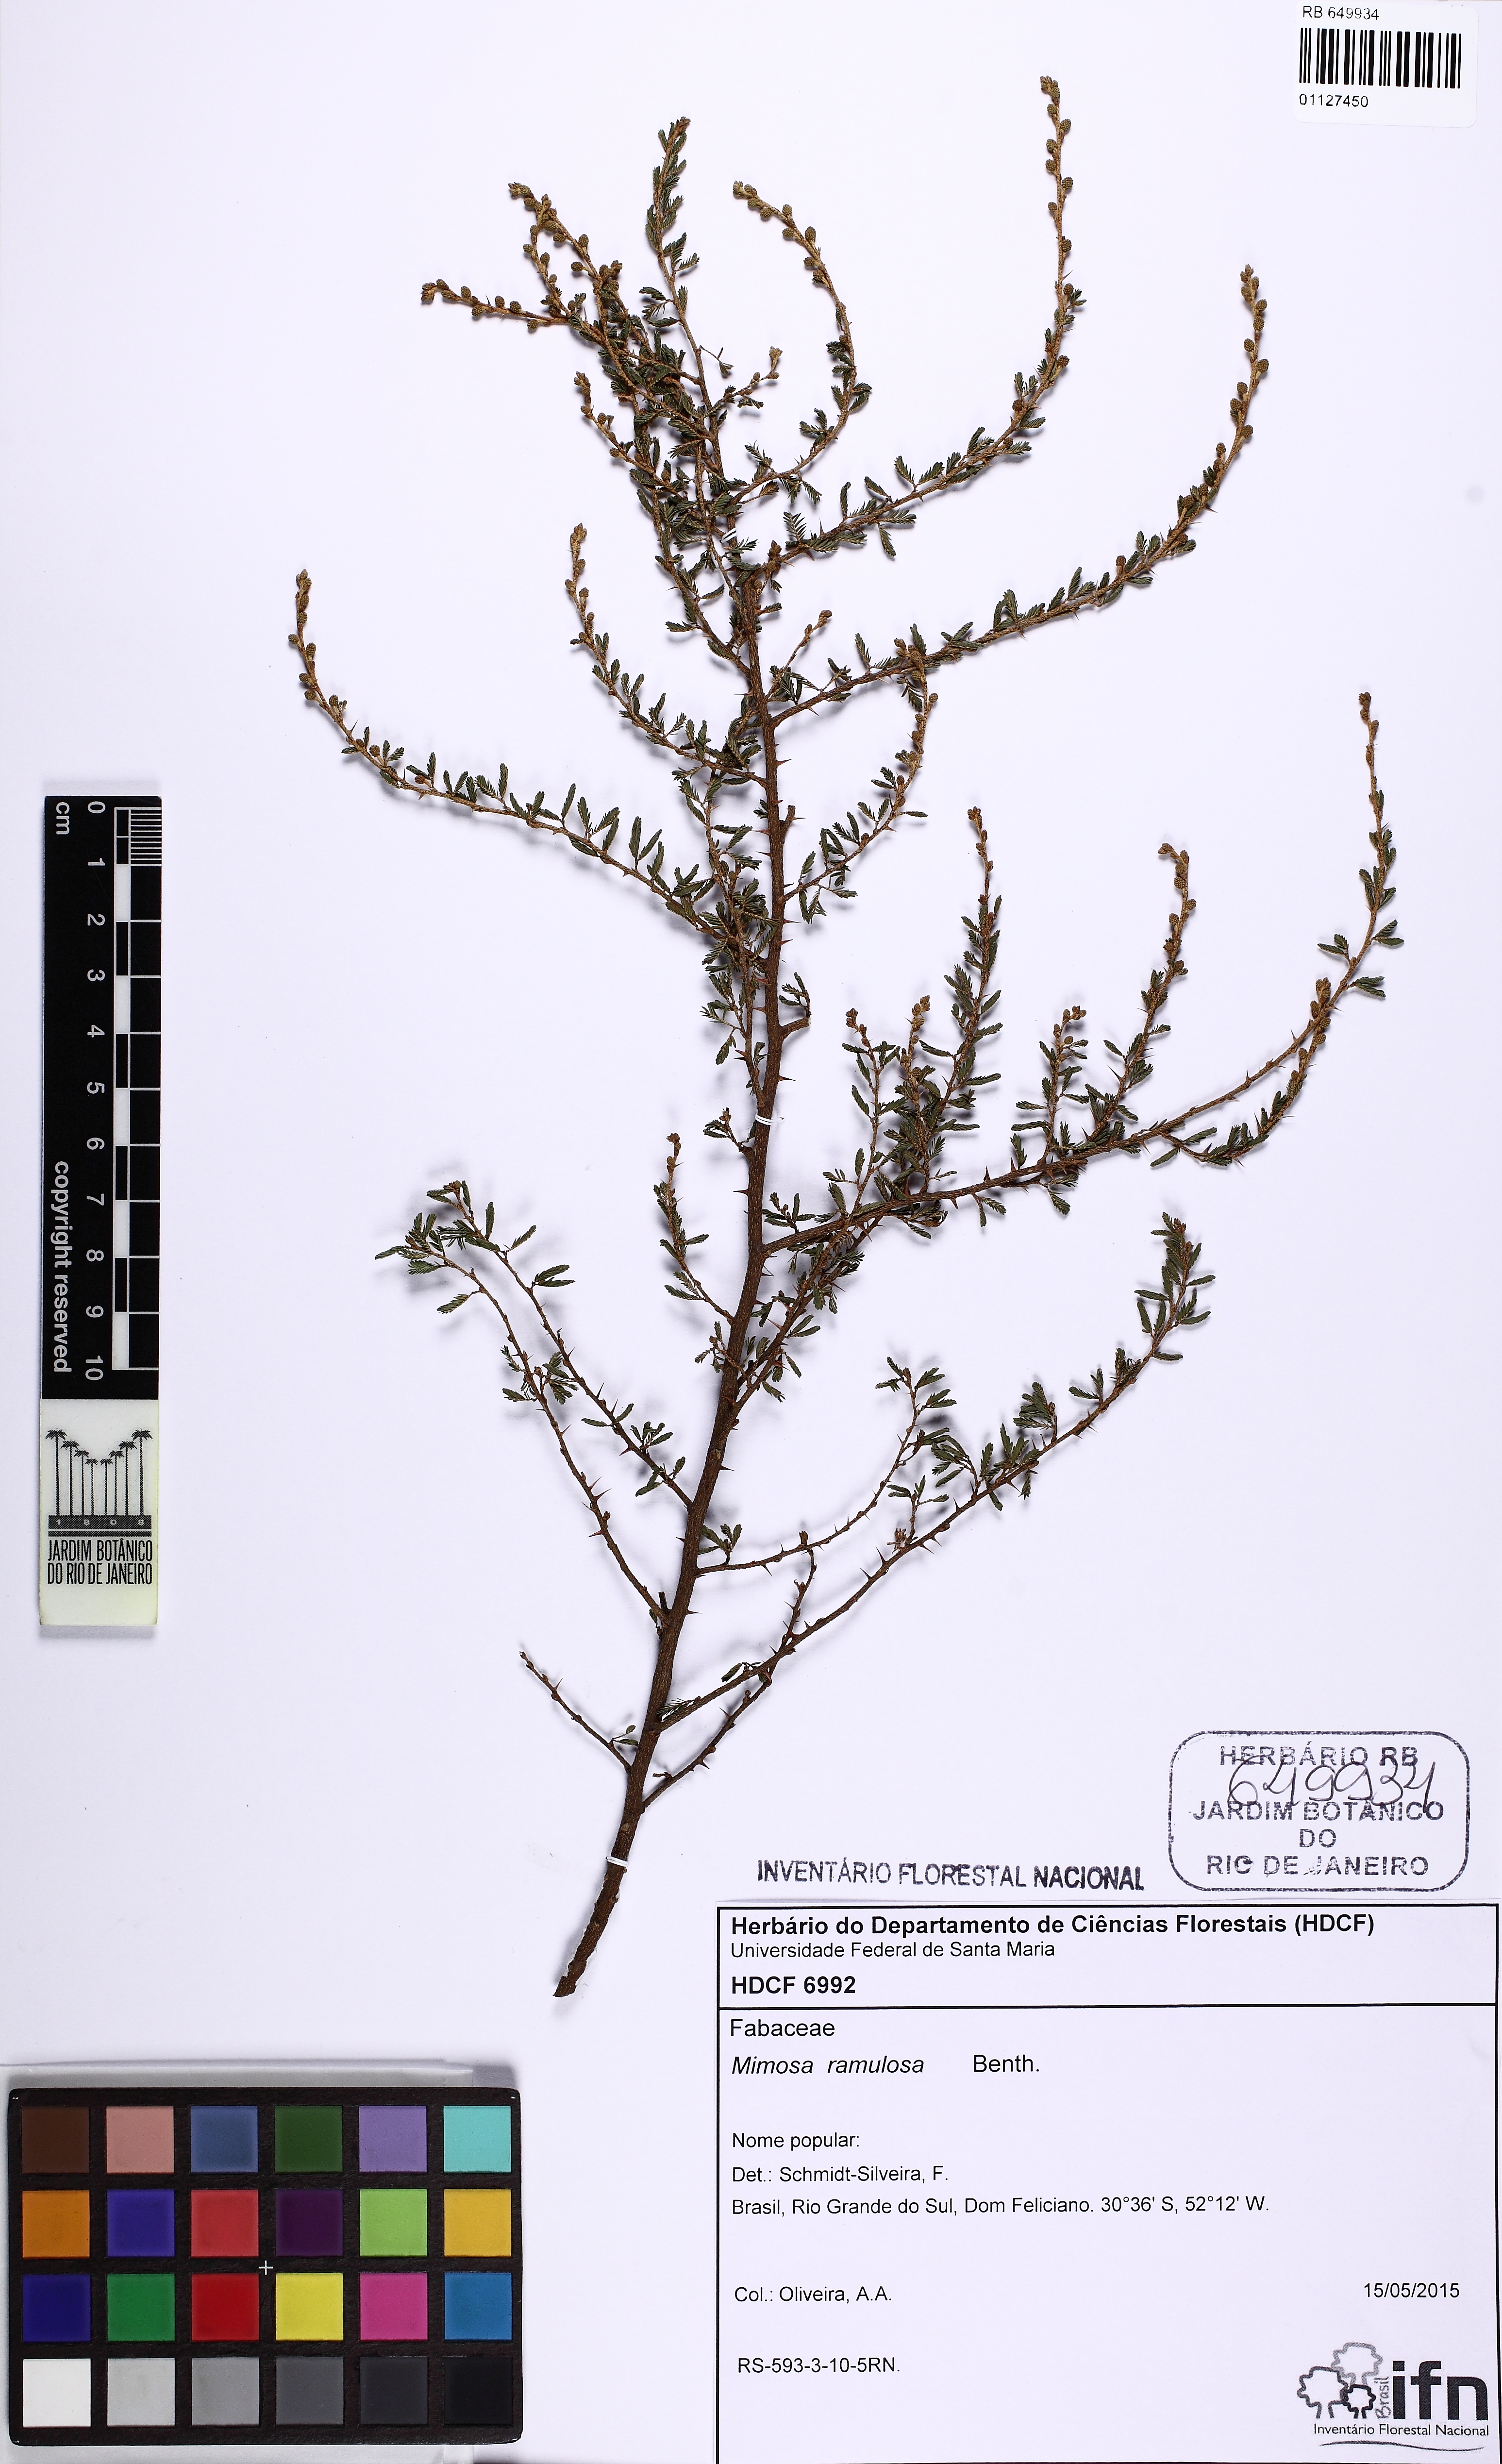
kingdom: Plantae
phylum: Tracheophyta
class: Magnoliopsida
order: Fabales
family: Fabaceae
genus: Mimosa
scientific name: Mimosa ramulosa
